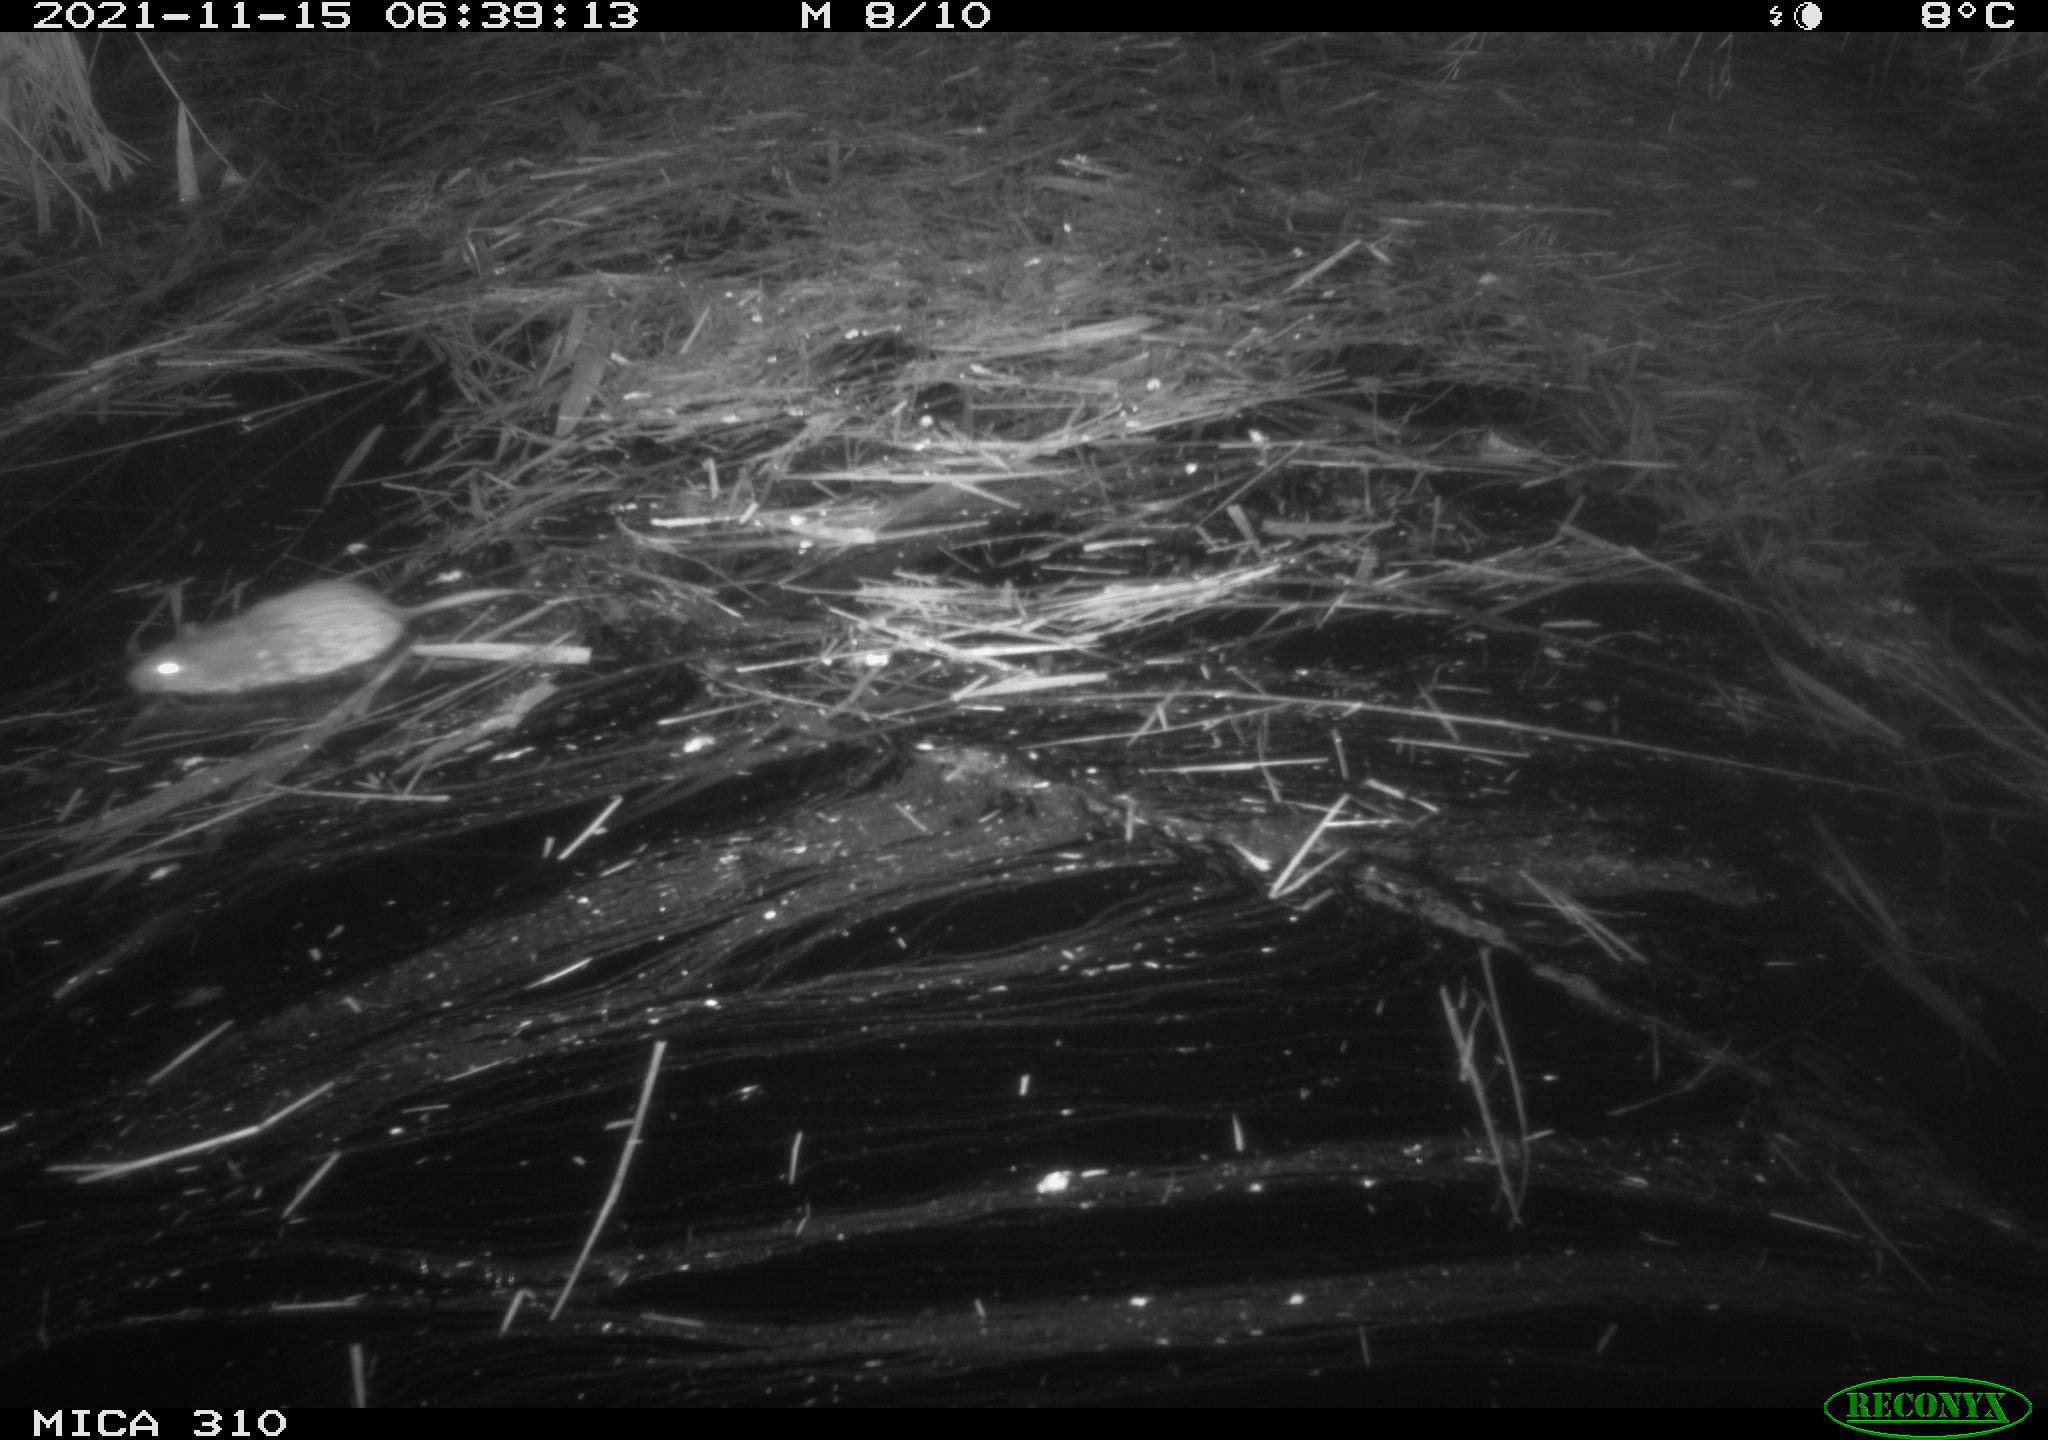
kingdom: Animalia
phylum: Chordata
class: Mammalia
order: Rodentia
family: Muridae
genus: Rattus
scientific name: Rattus norvegicus
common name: Brown rat
